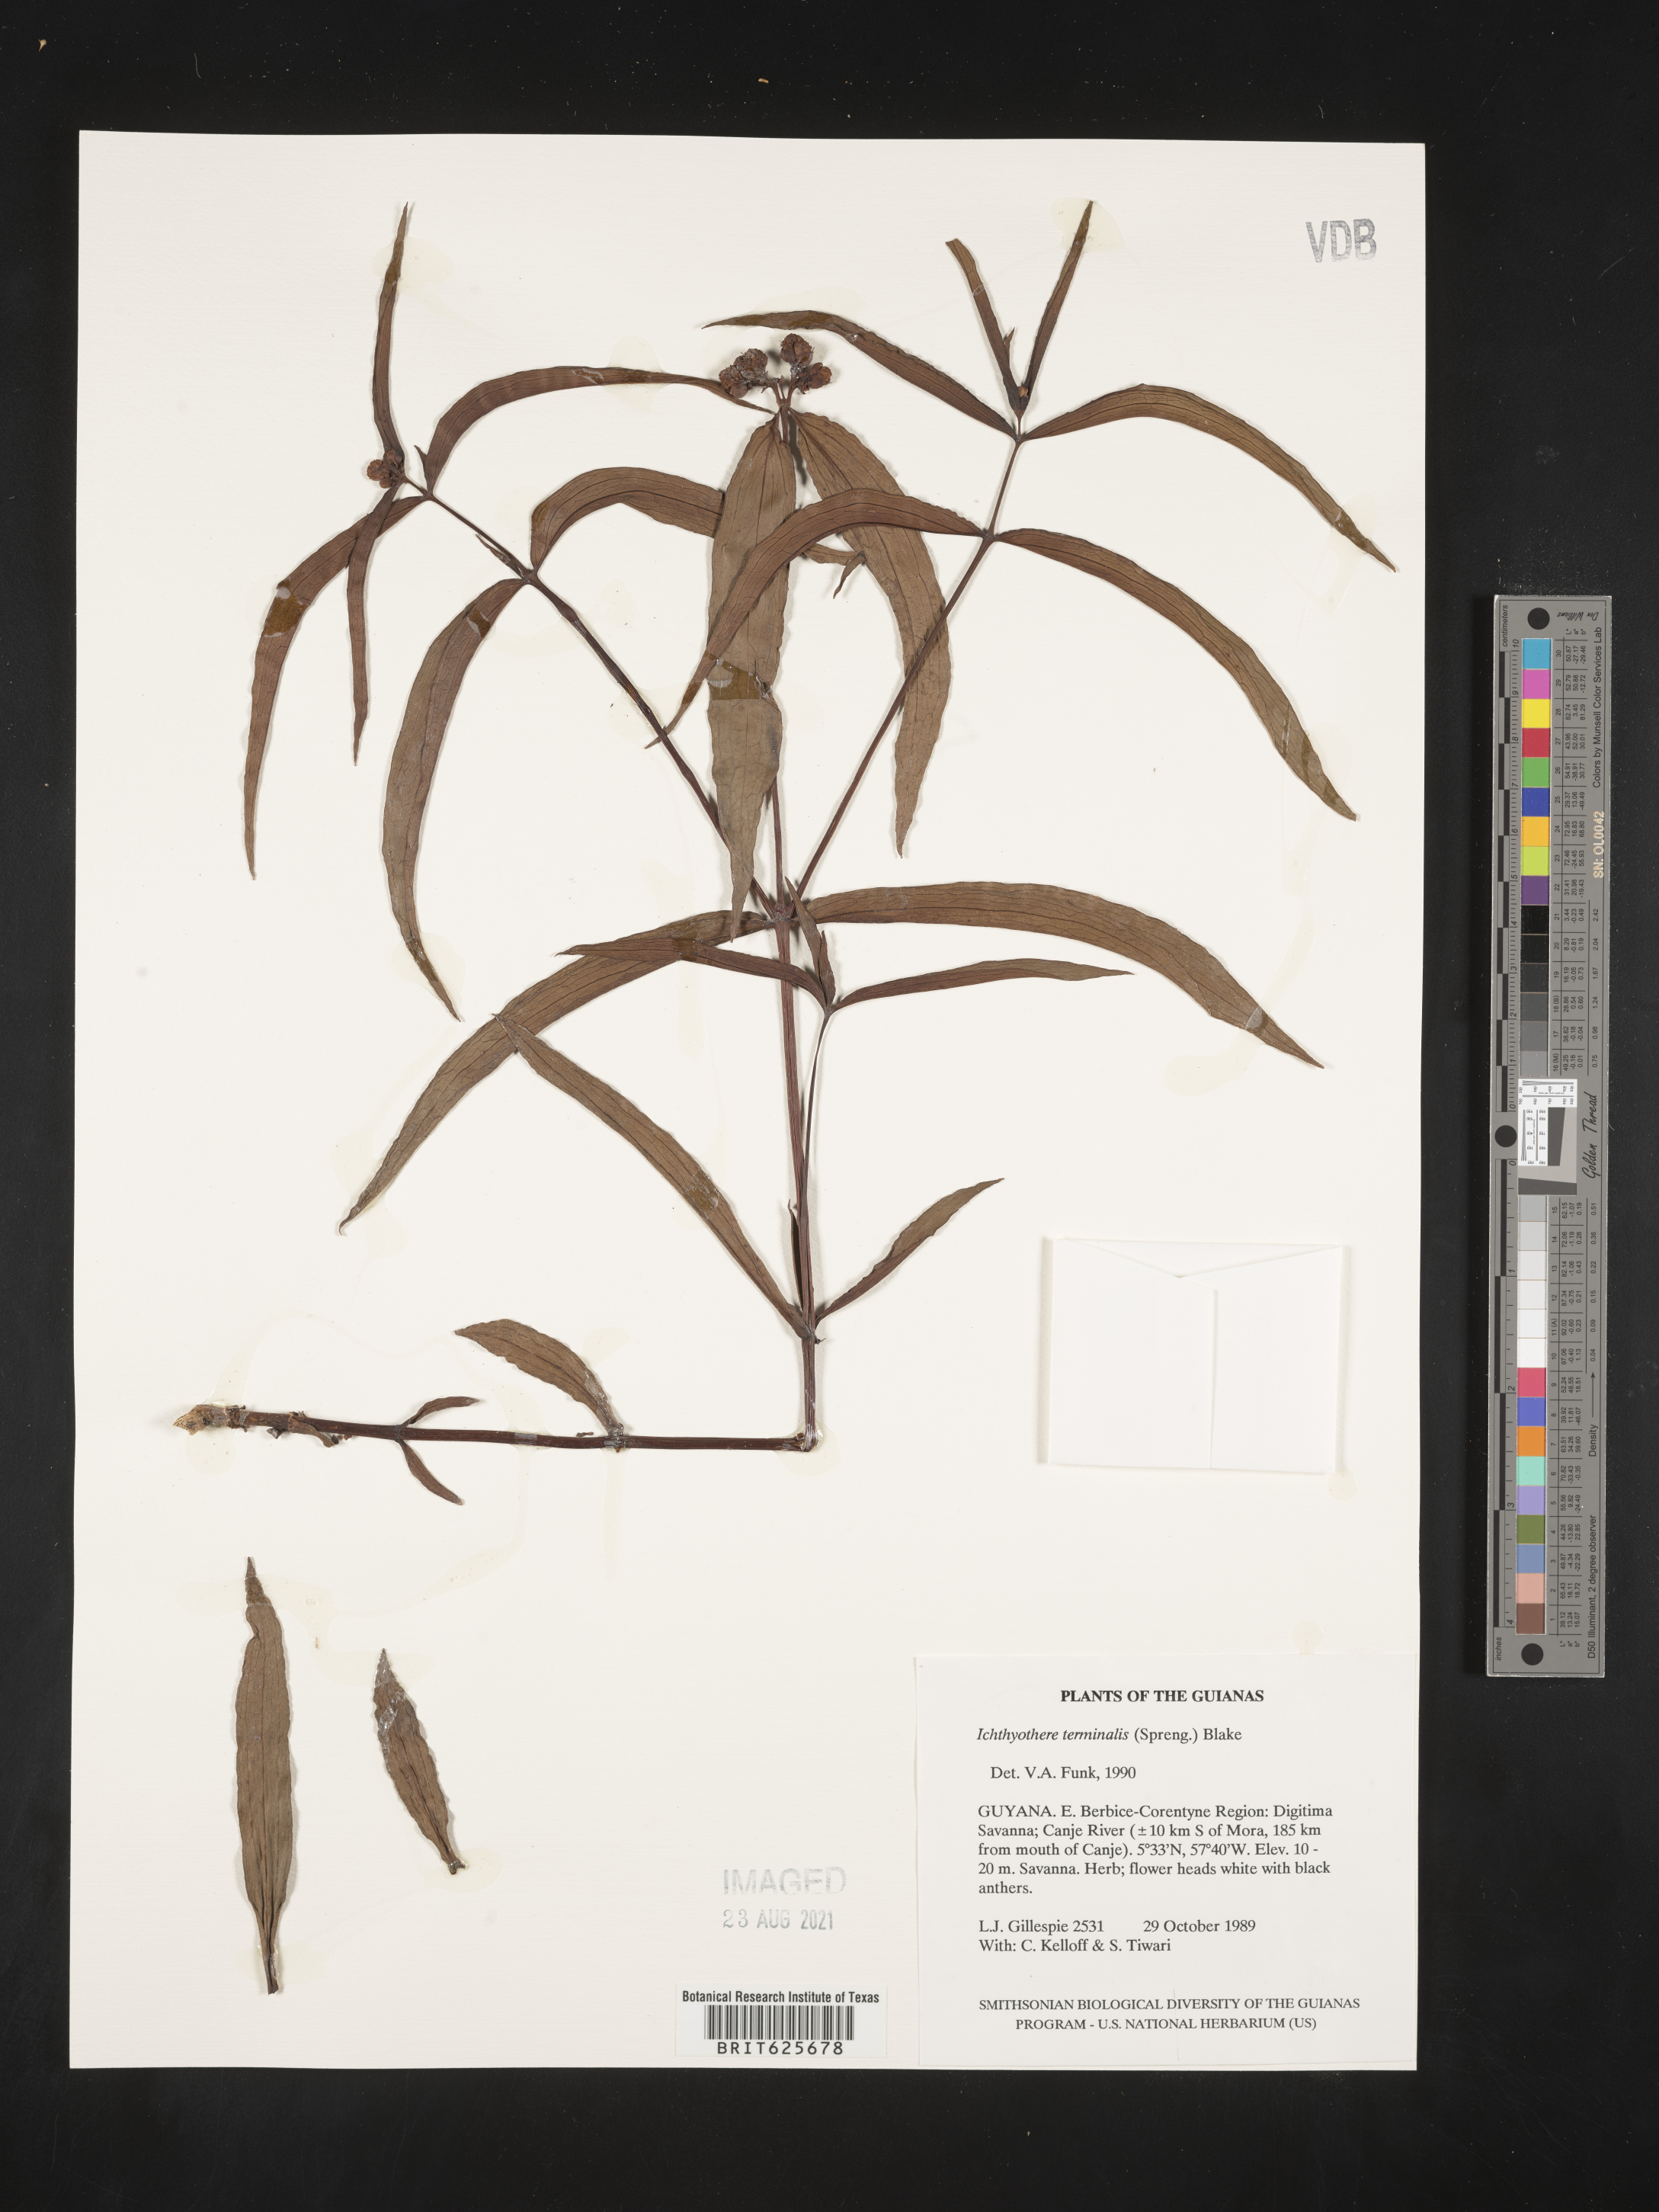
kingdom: Plantae
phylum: Tracheophyta
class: Magnoliopsida
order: Asterales
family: Asteraceae
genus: Ichthyothere
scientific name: Ichthyothere terminalis
